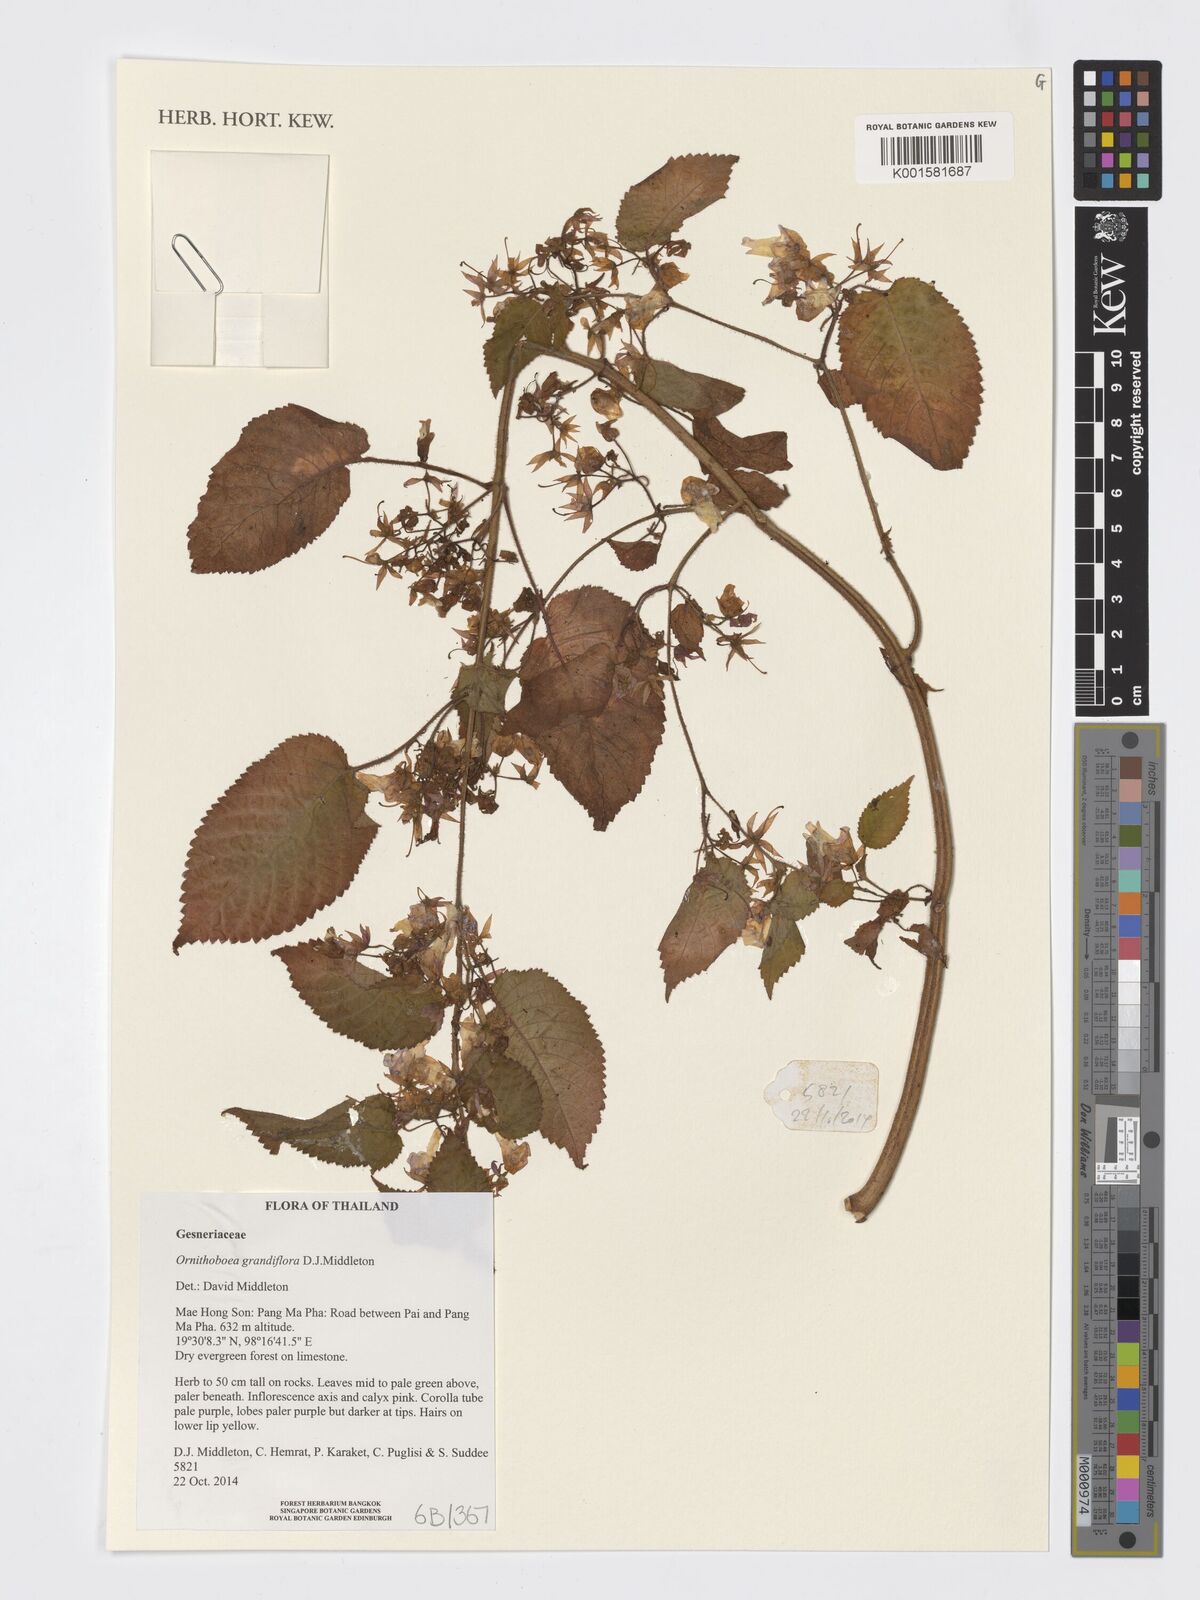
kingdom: Plantae
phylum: Tracheophyta
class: Magnoliopsida
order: Lamiales
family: Gesneriaceae
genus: Ornithoboea
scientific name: Ornithoboea grandiflora
